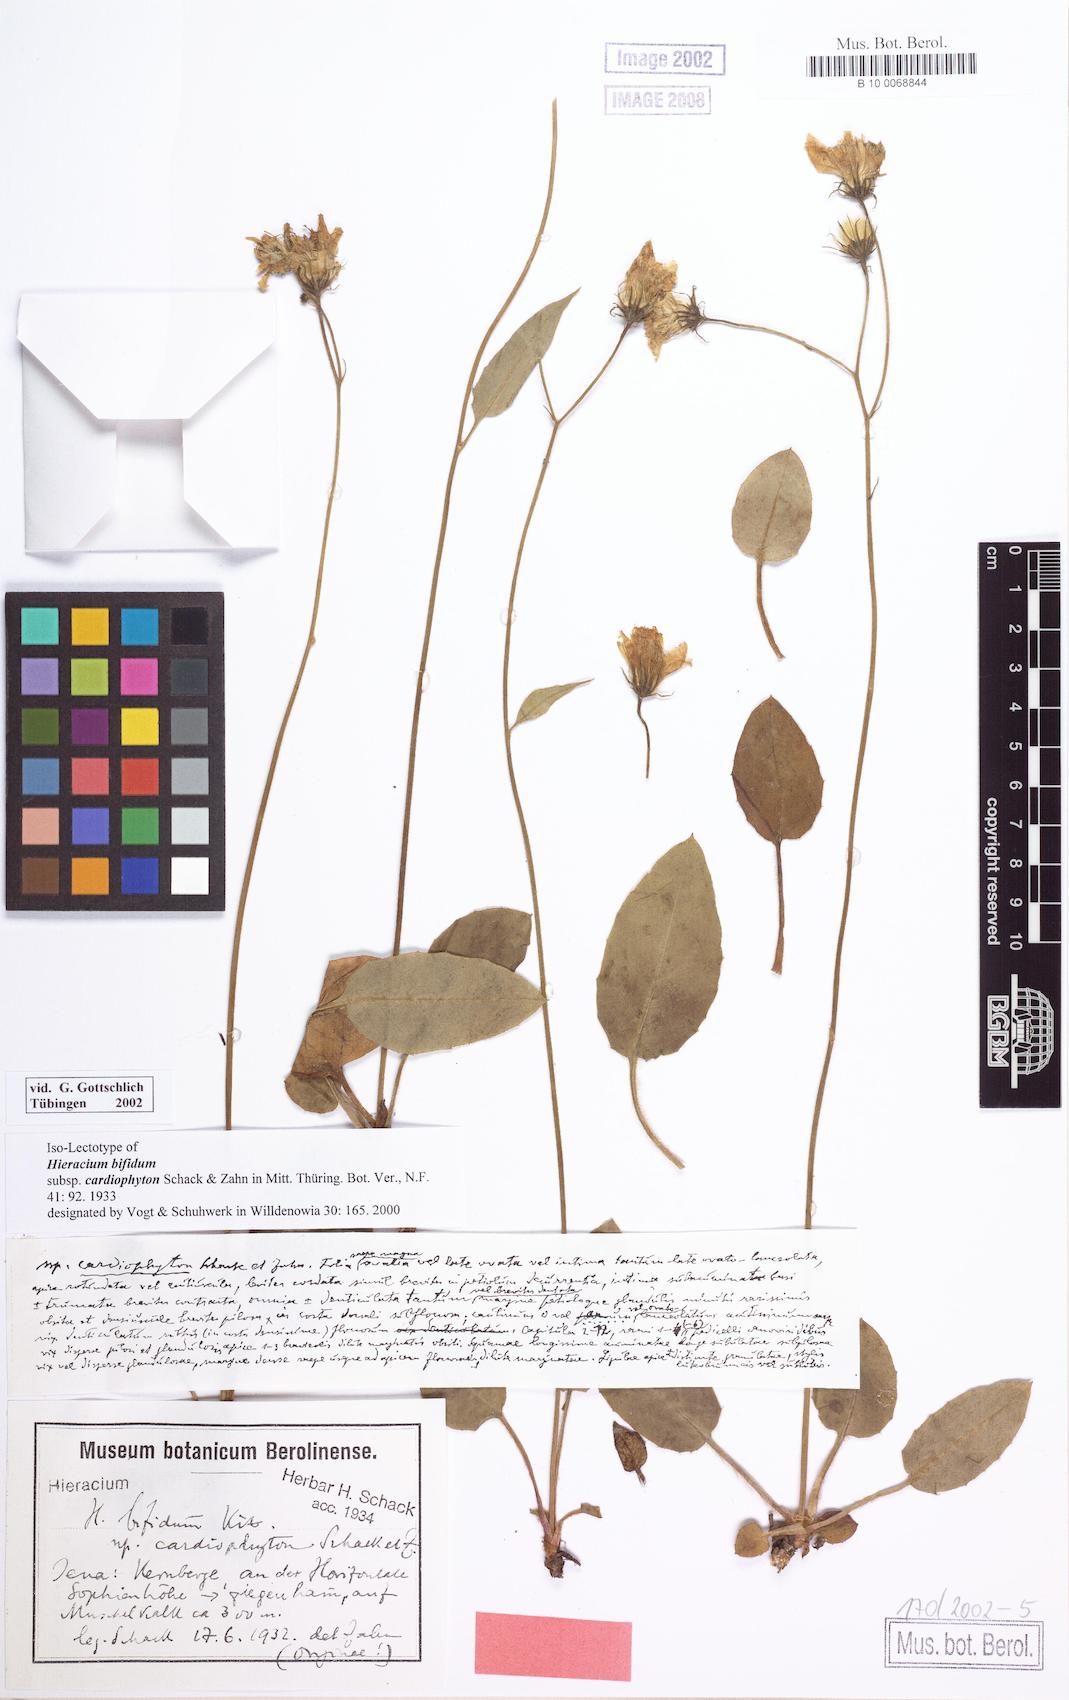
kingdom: Plantae
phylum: Tracheophyta
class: Magnoliopsida
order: Asterales
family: Asteraceae
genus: Hieracium
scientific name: Hieracium bifidum
